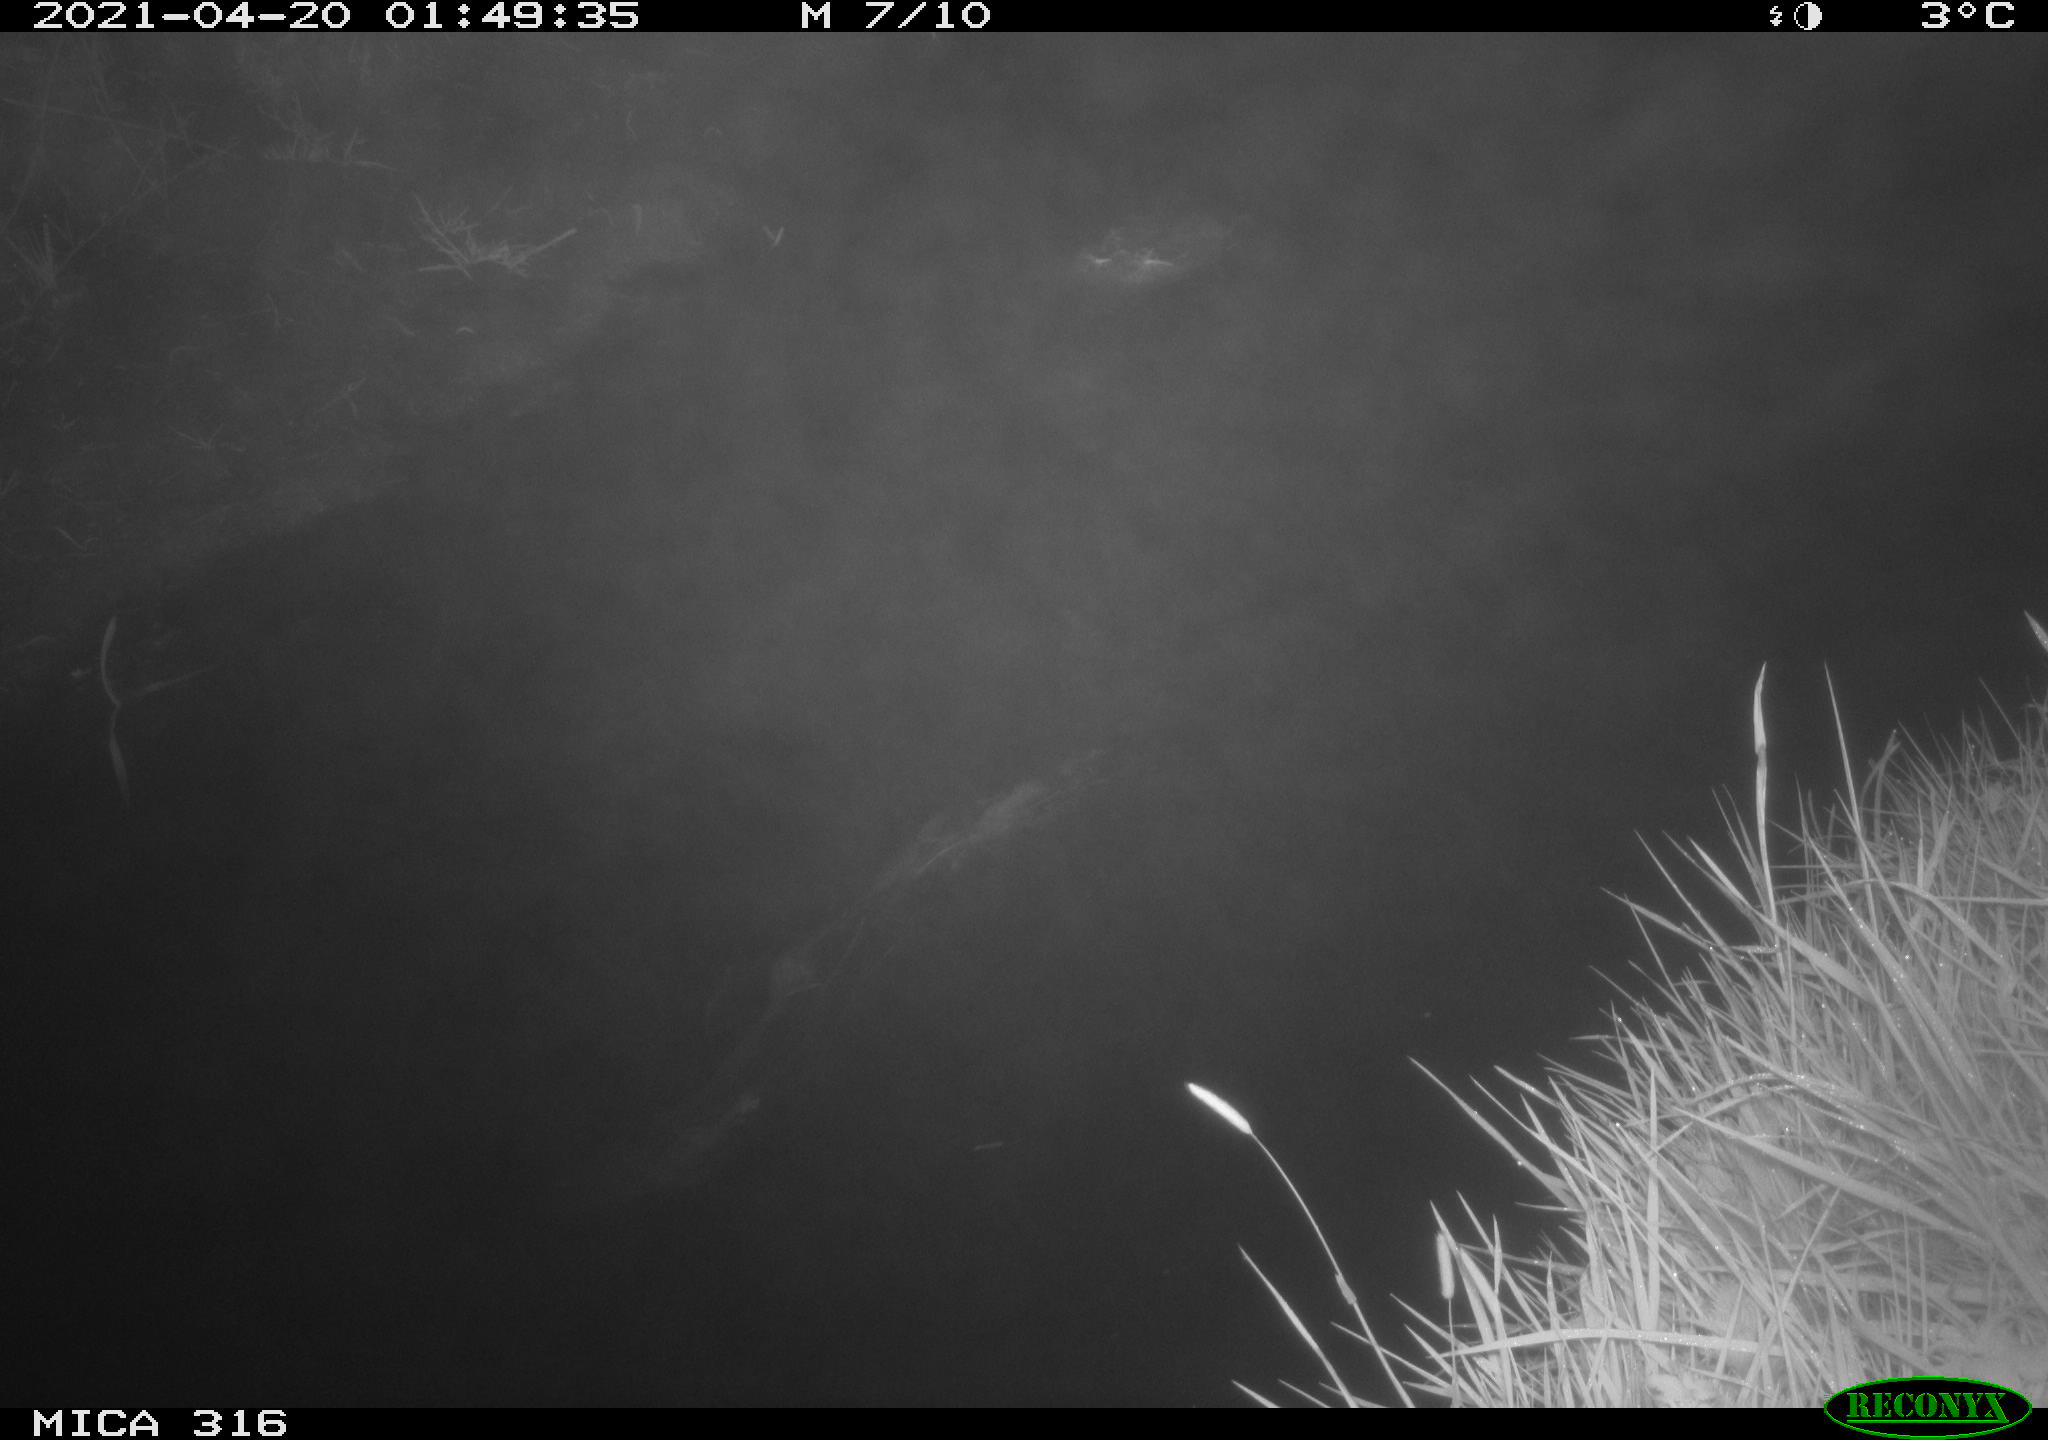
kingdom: Animalia
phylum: Chordata
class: Aves
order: Anseriformes
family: Anatidae
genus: Anas
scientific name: Anas platyrhynchos
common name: Mallard
